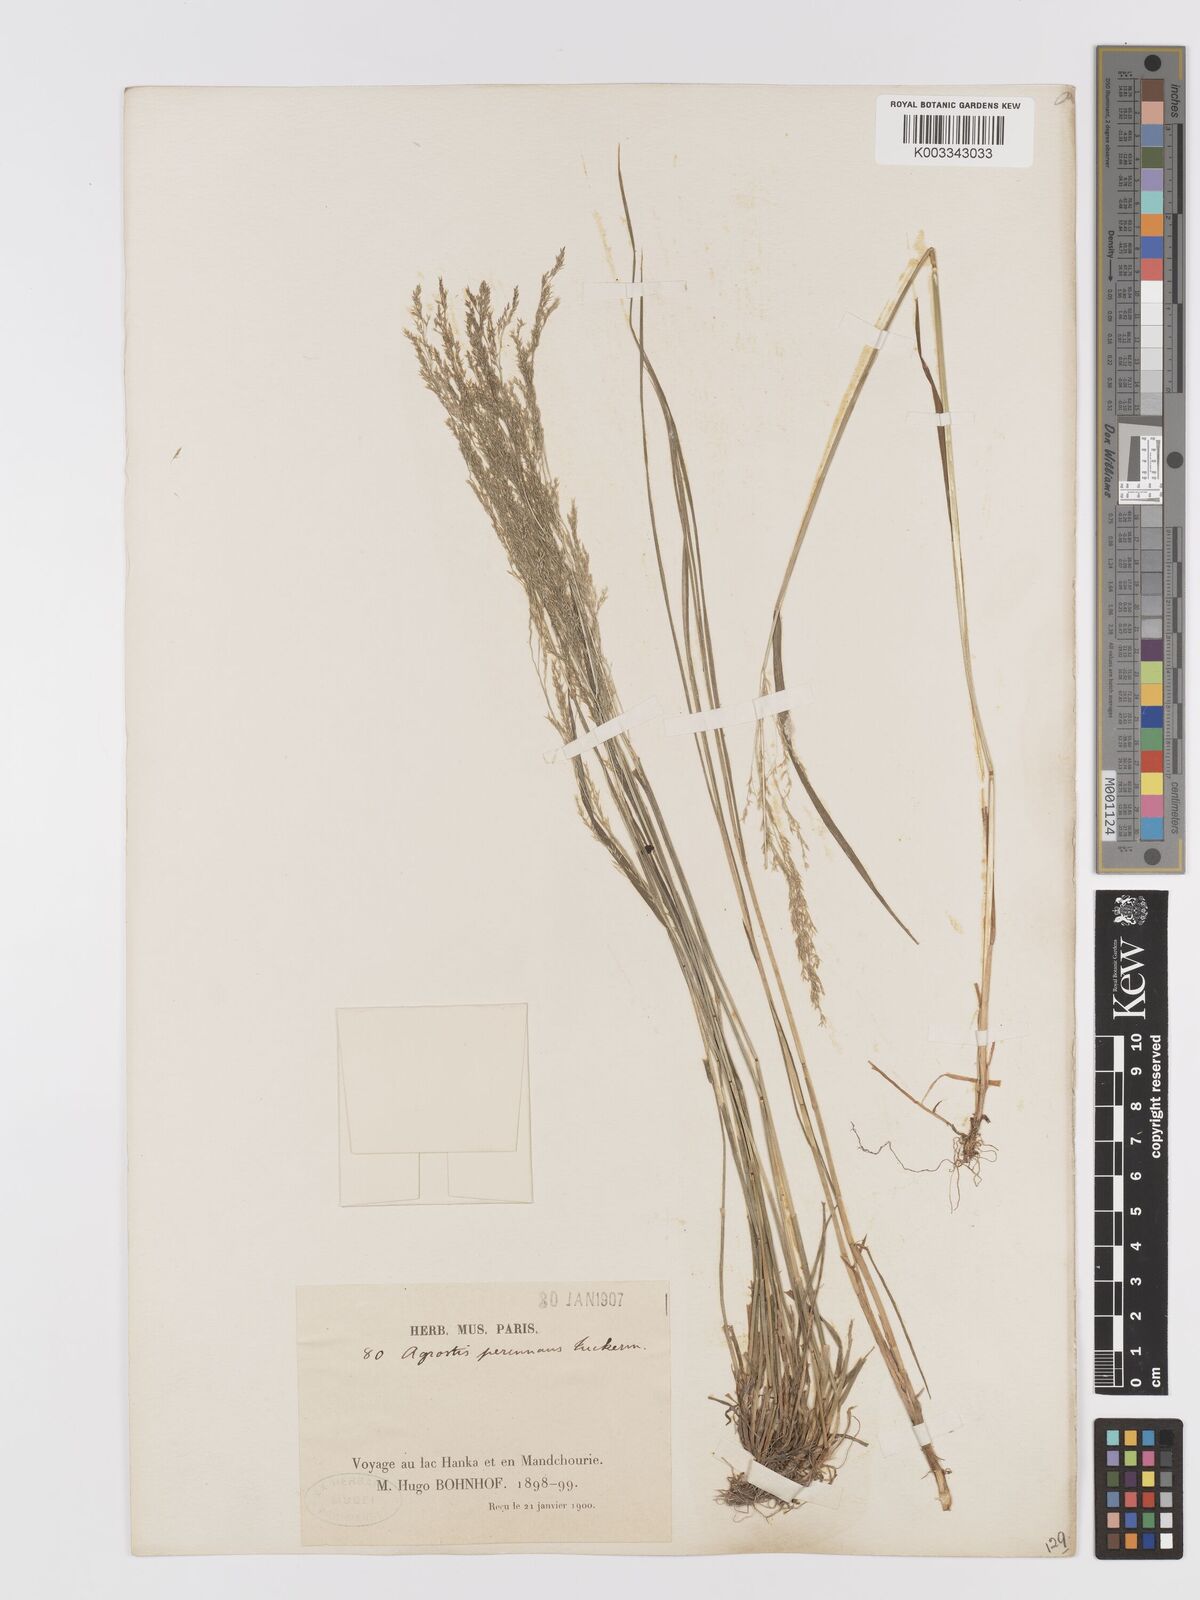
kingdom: Plantae
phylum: Tracheophyta
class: Liliopsida
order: Poales
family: Poaceae
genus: Agrostis
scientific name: Agrostis clavata
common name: Clavate bent
